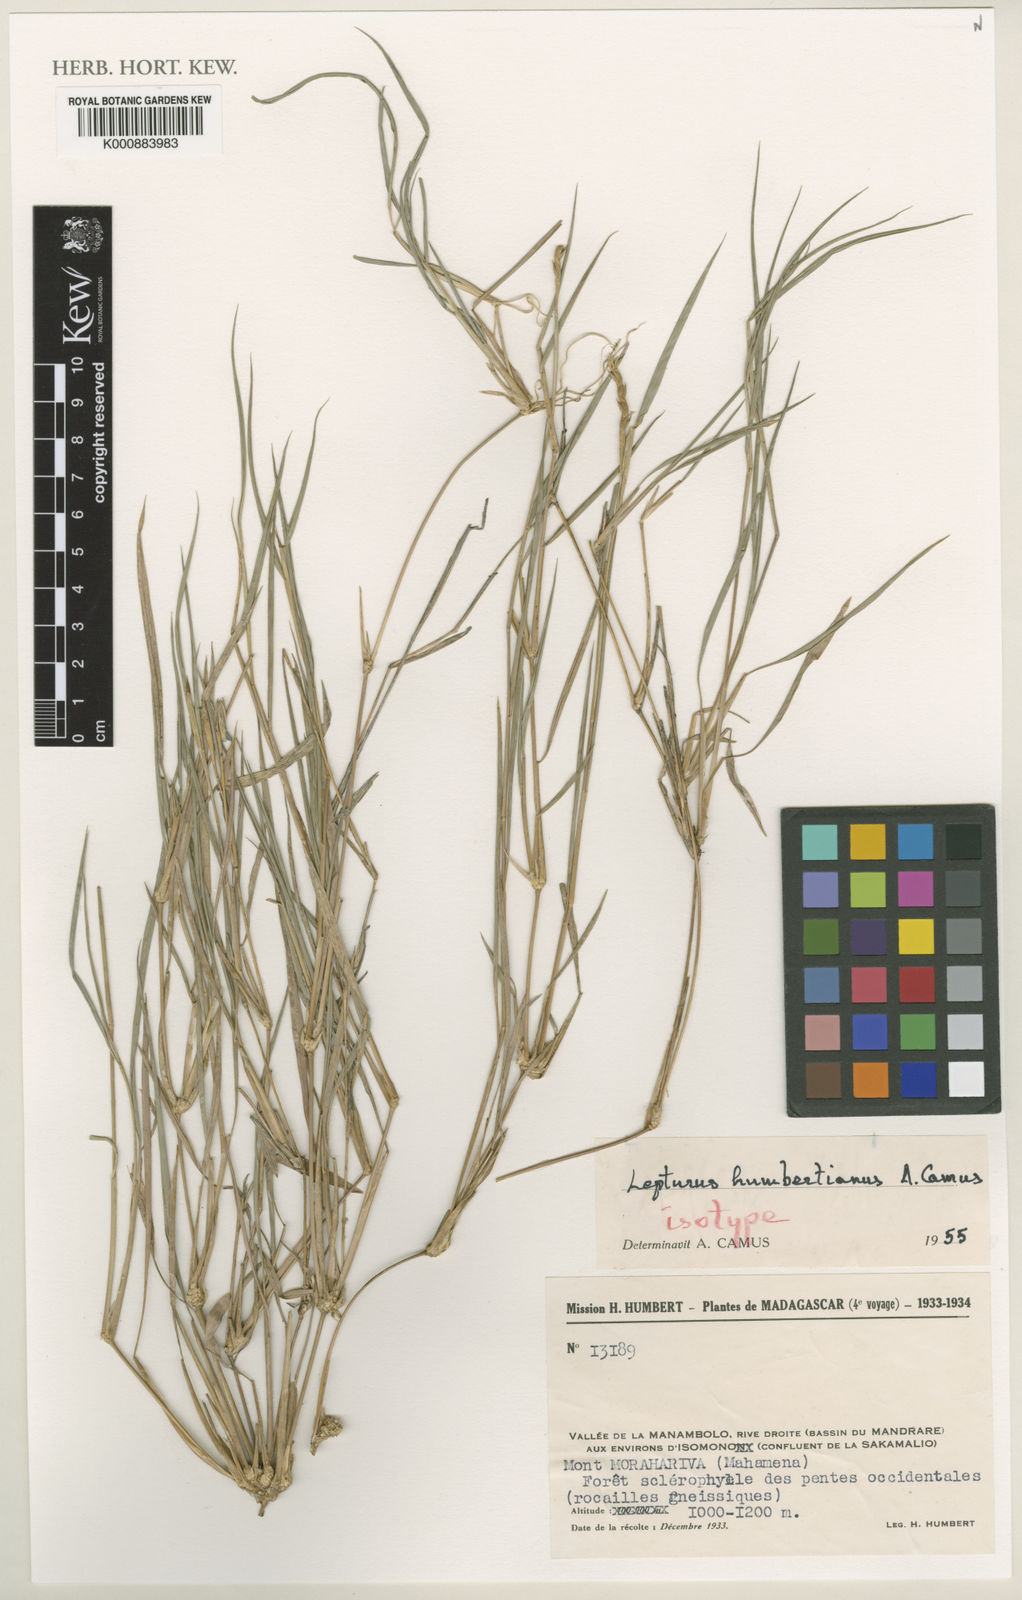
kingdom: Plantae
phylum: Tracheophyta
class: Liliopsida
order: Poales
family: Poaceae
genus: Lepturus
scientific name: Lepturus humbertianus
